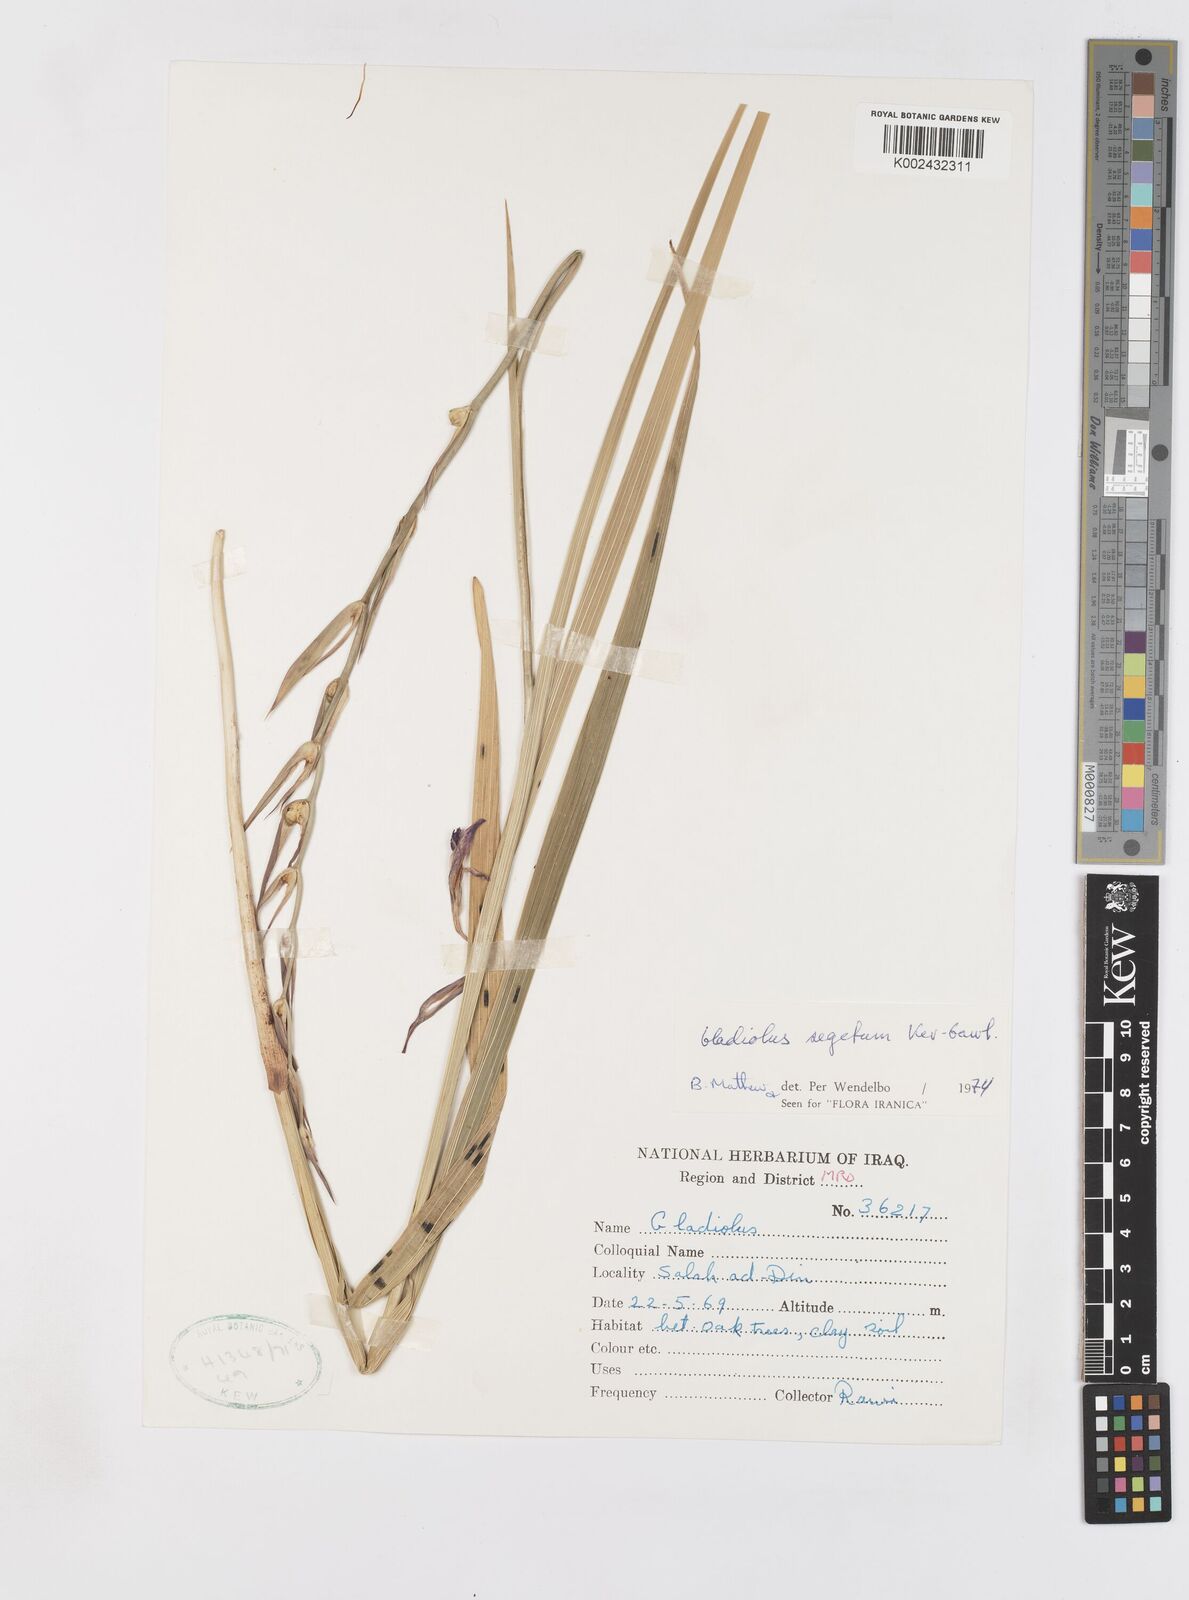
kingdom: Plantae
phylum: Tracheophyta
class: Liliopsida
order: Asparagales
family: Iridaceae
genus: Gladiolus
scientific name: Gladiolus italicus
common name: Field gladiolus
